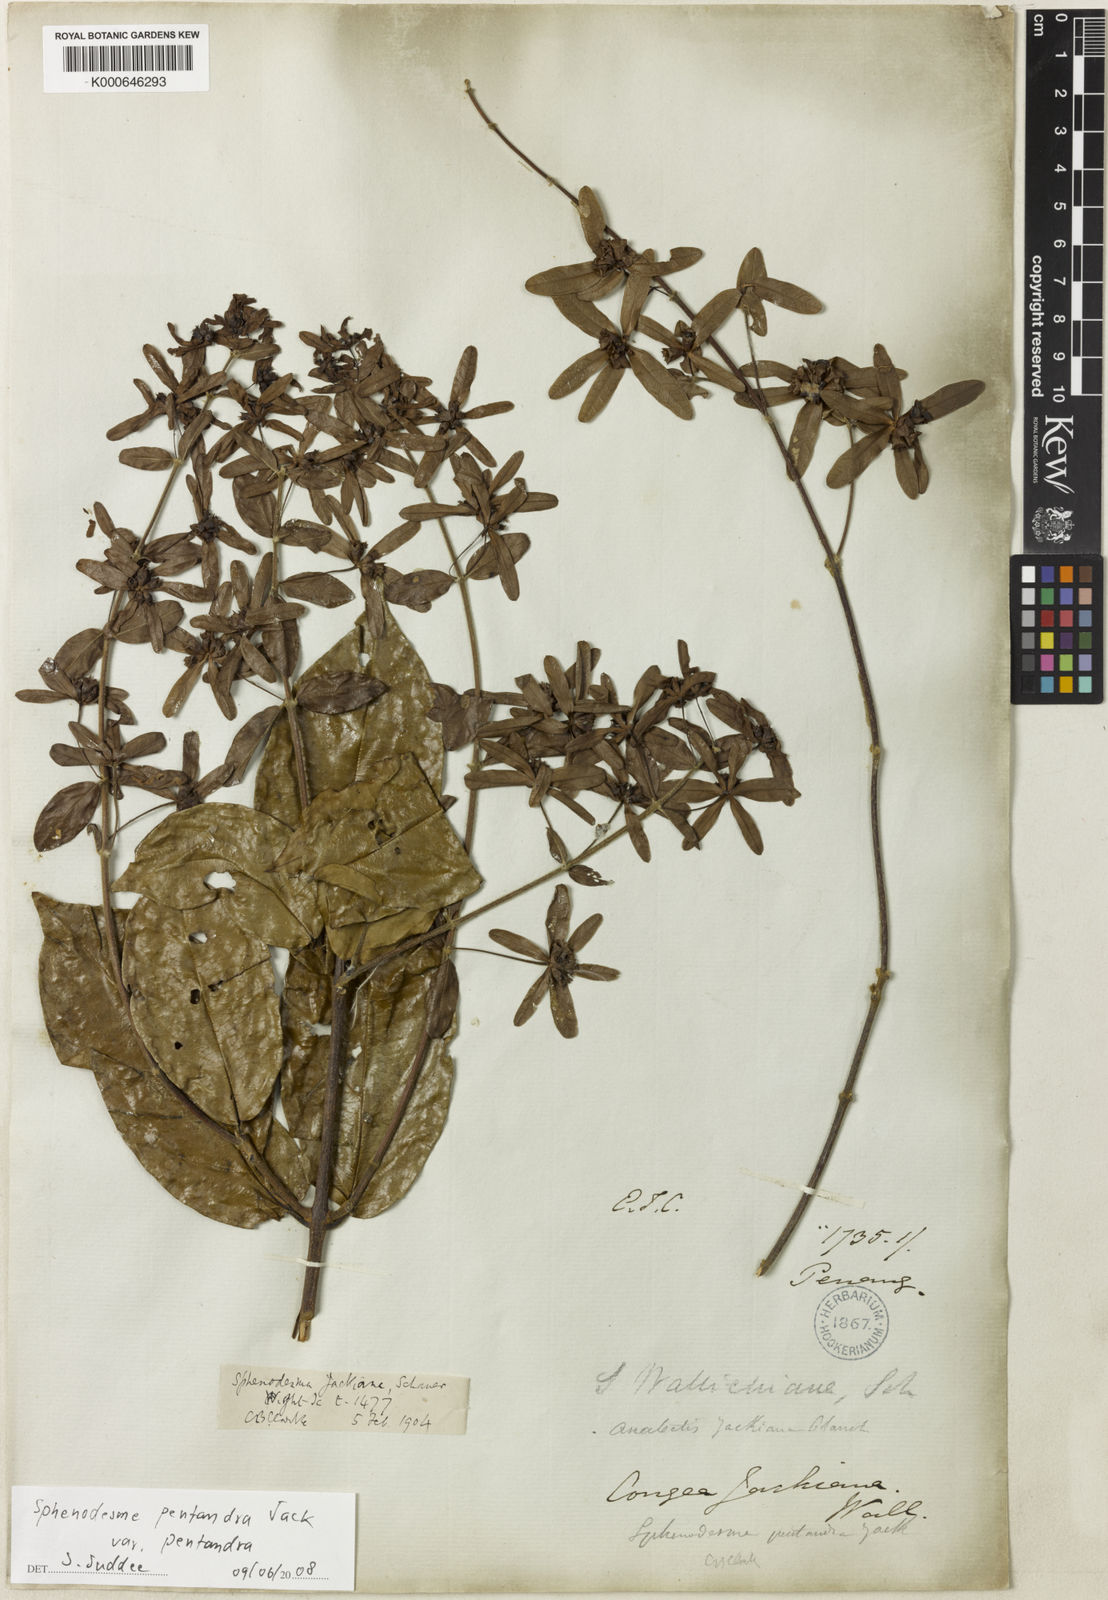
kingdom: Plantae
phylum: Tracheophyta
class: Magnoliopsida
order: Lamiales
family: Lamiaceae
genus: Sphenodesme
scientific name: Sphenodesme pentandra
